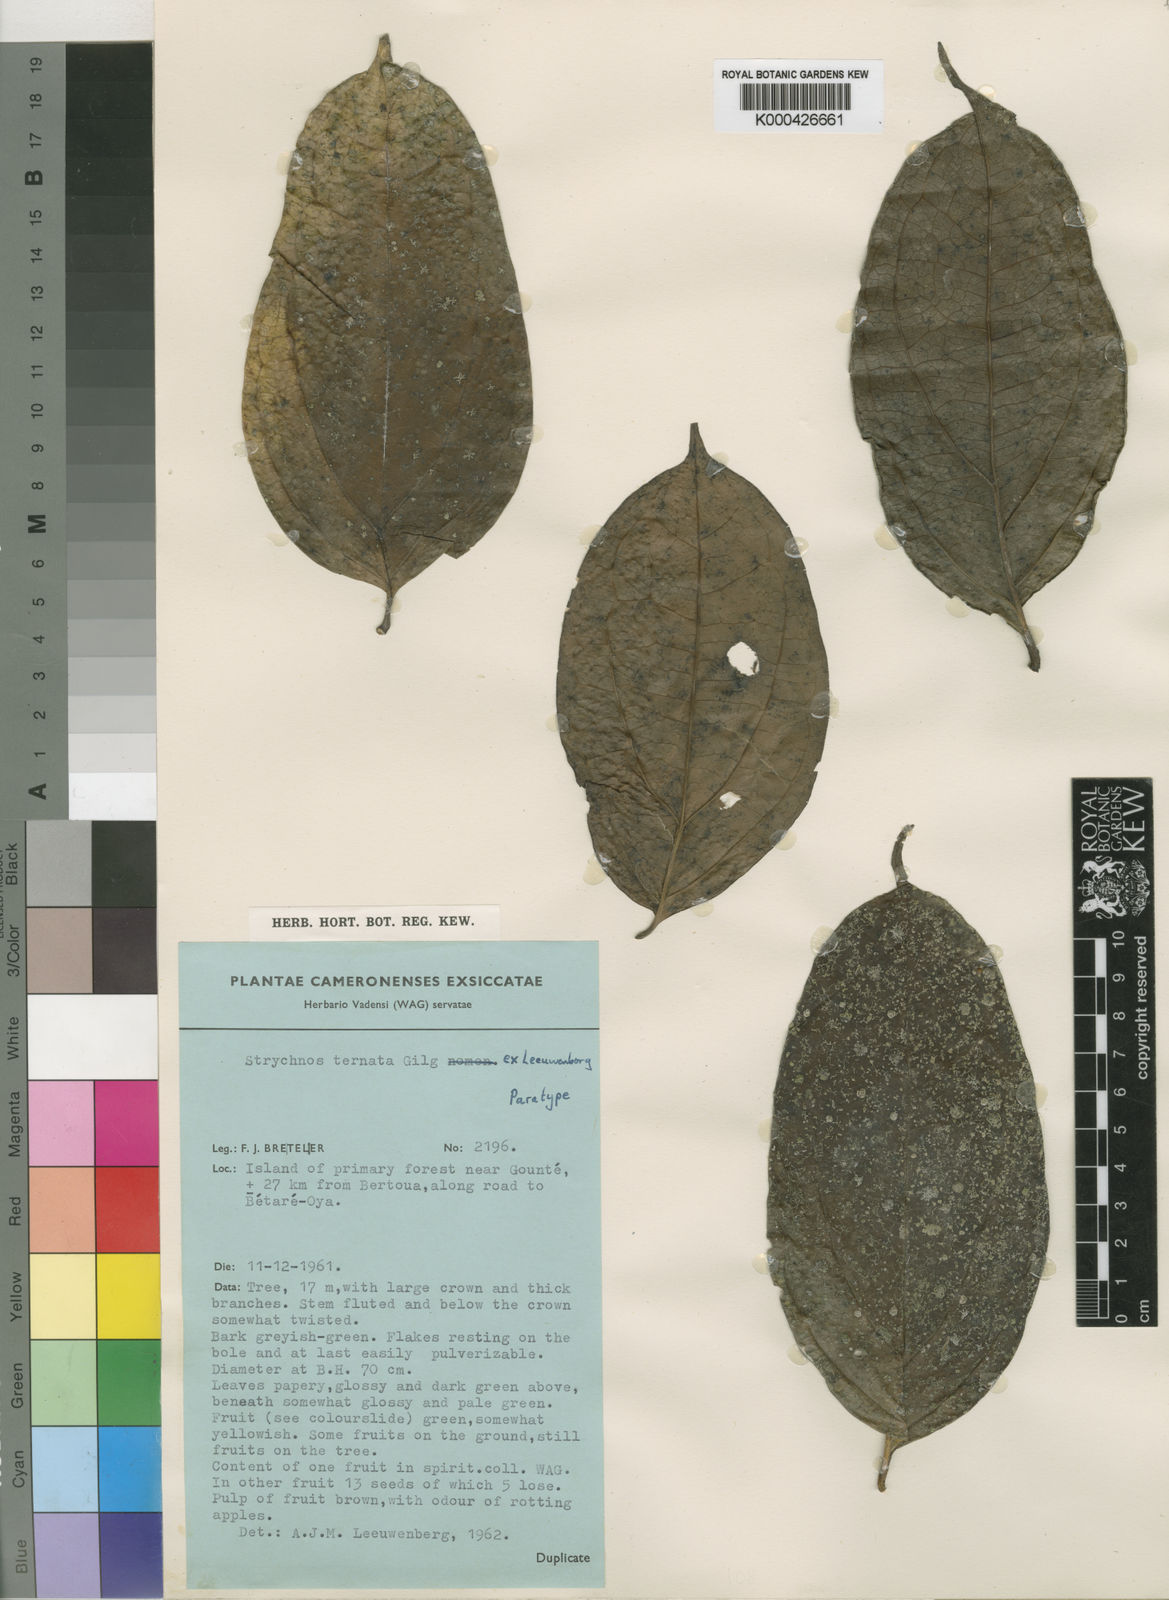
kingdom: Plantae
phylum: Tracheophyta
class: Magnoliopsida
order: Gentianales
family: Loganiaceae
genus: Strychnos
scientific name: Strychnos ternata
